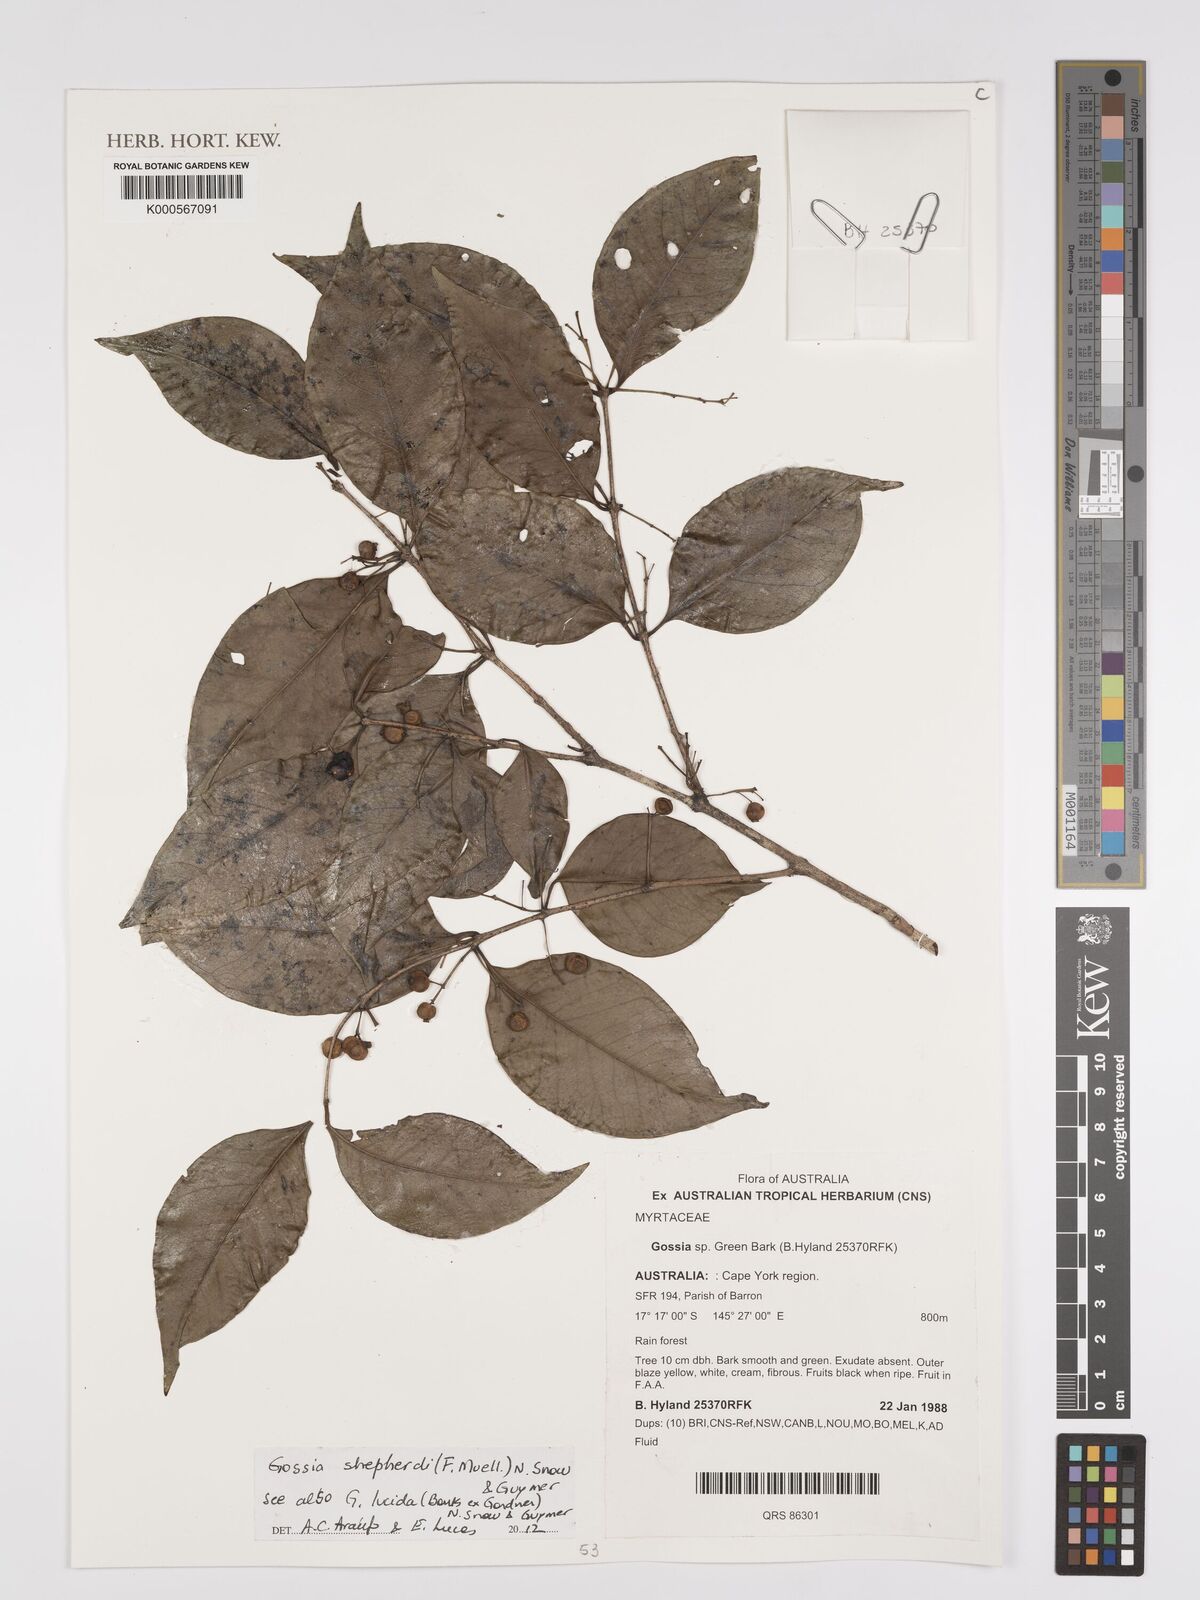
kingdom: Plantae
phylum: Tracheophyta
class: Magnoliopsida
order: Myrtales
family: Myrtaceae
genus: Gossia
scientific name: Gossia
